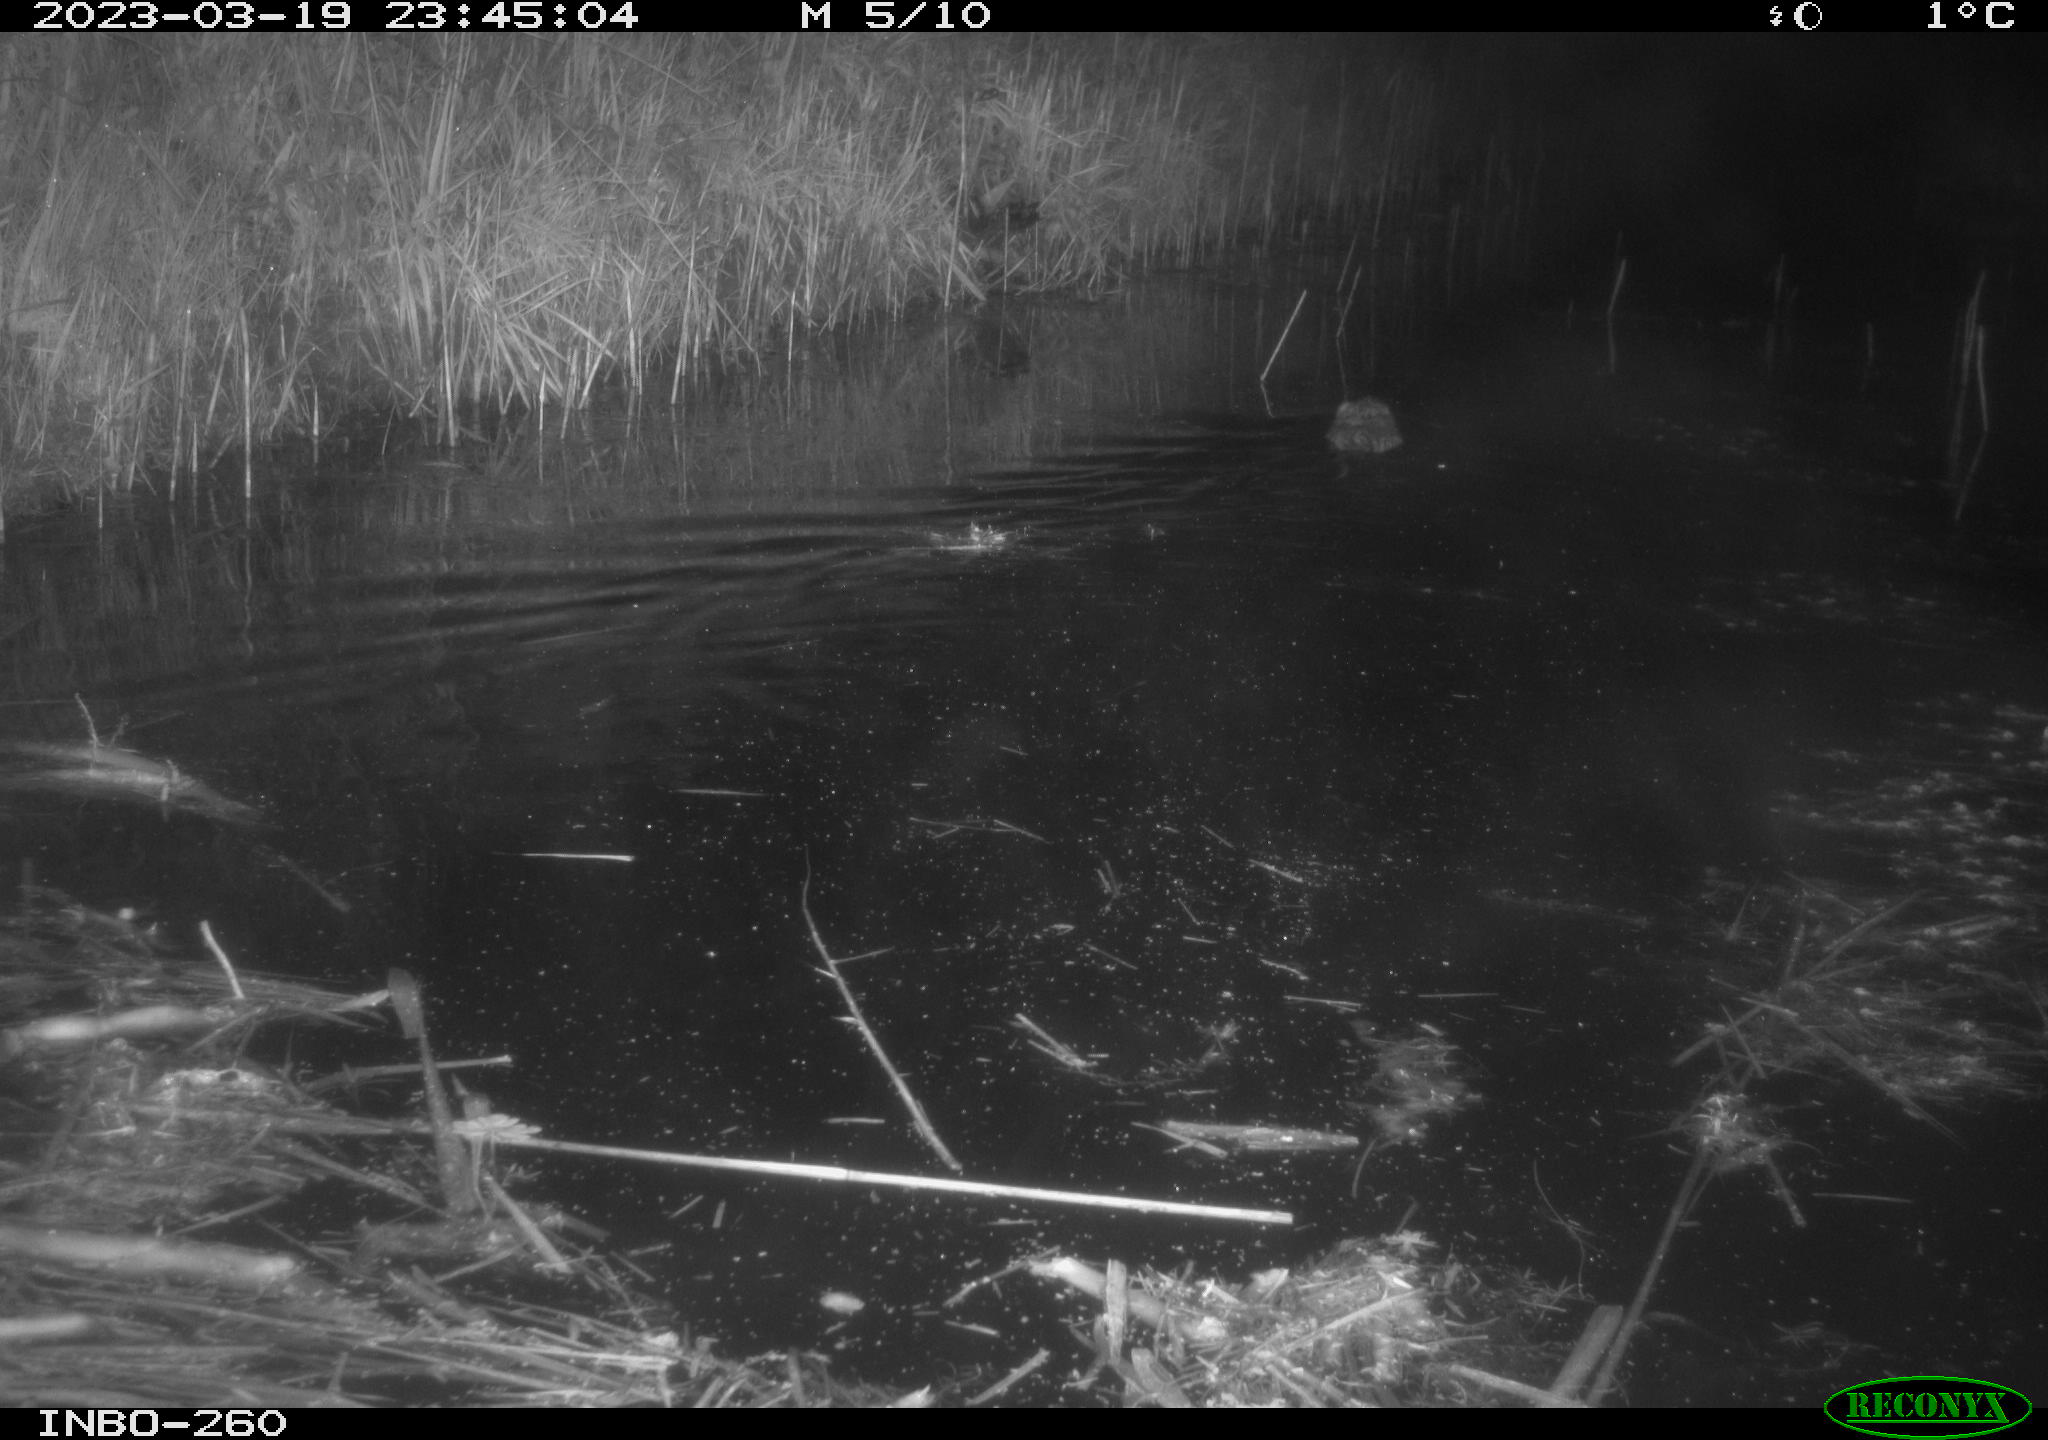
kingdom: Animalia
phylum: Chordata
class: Mammalia
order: Rodentia
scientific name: Rodentia
